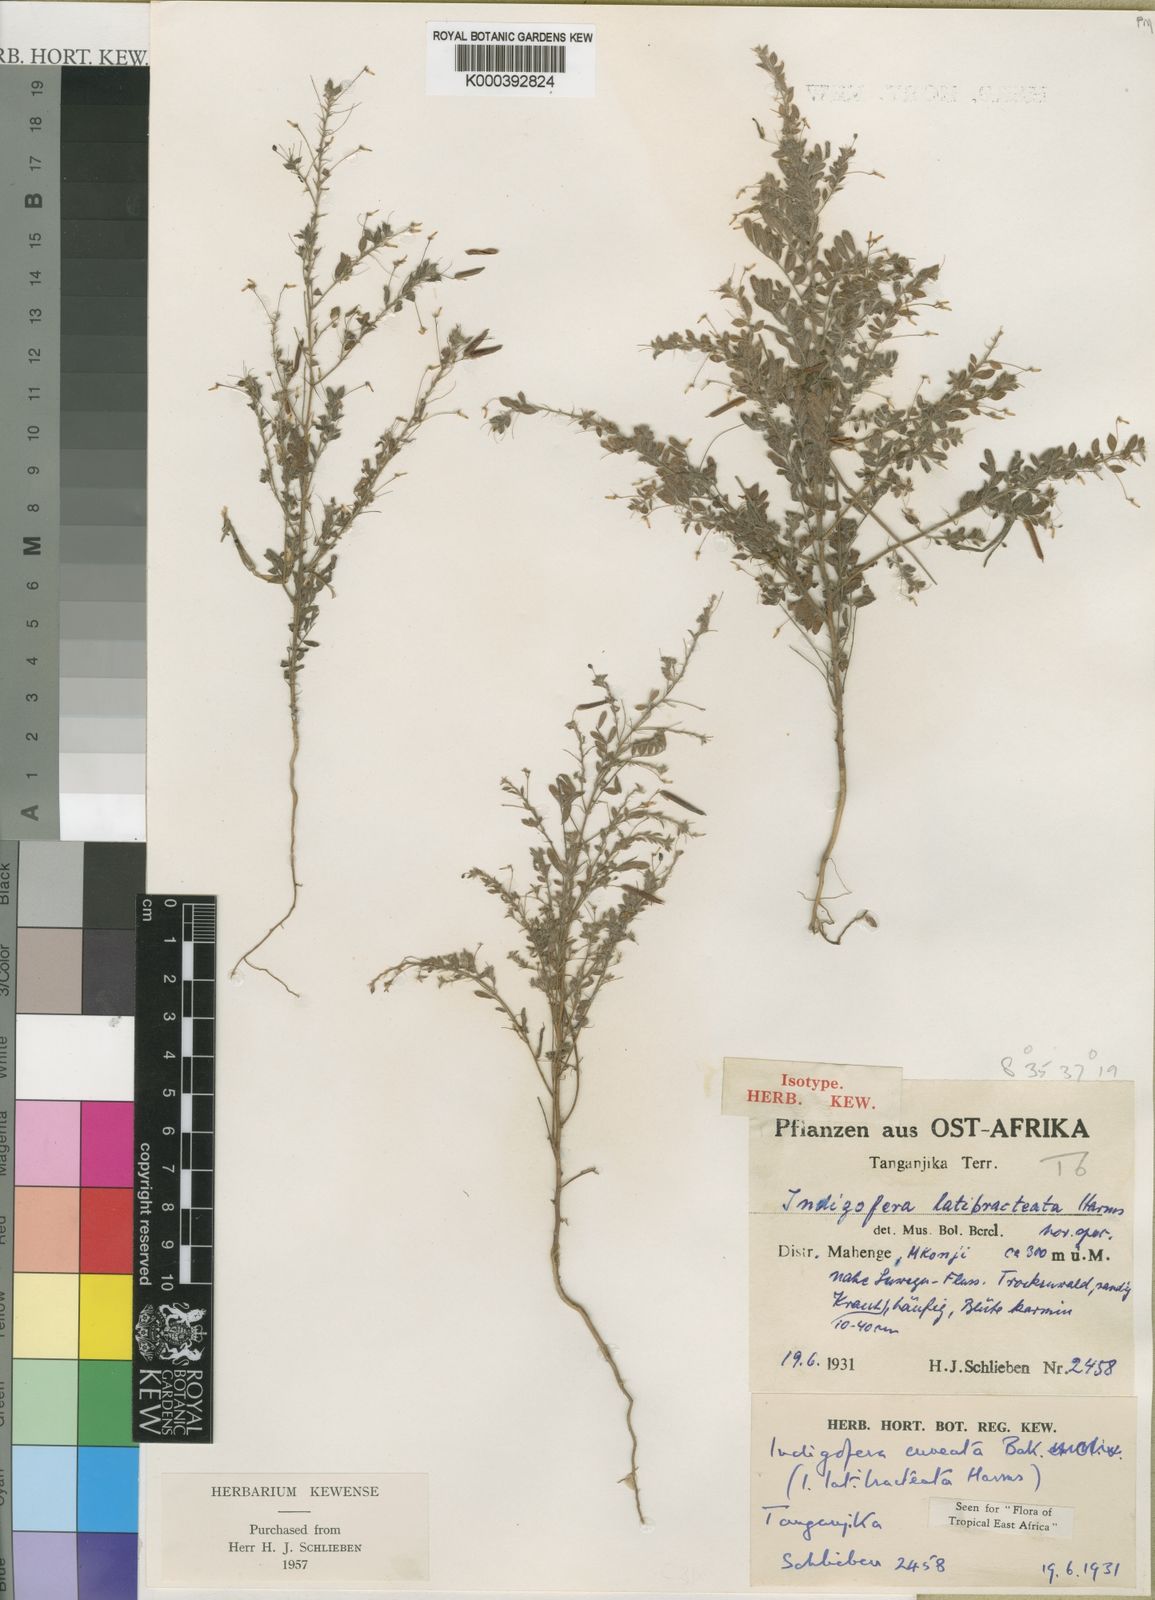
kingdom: Plantae
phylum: Tracheophyta
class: Magnoliopsida
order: Fabales
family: Fabaceae
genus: Indigofera
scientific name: Indigofera cuneata
